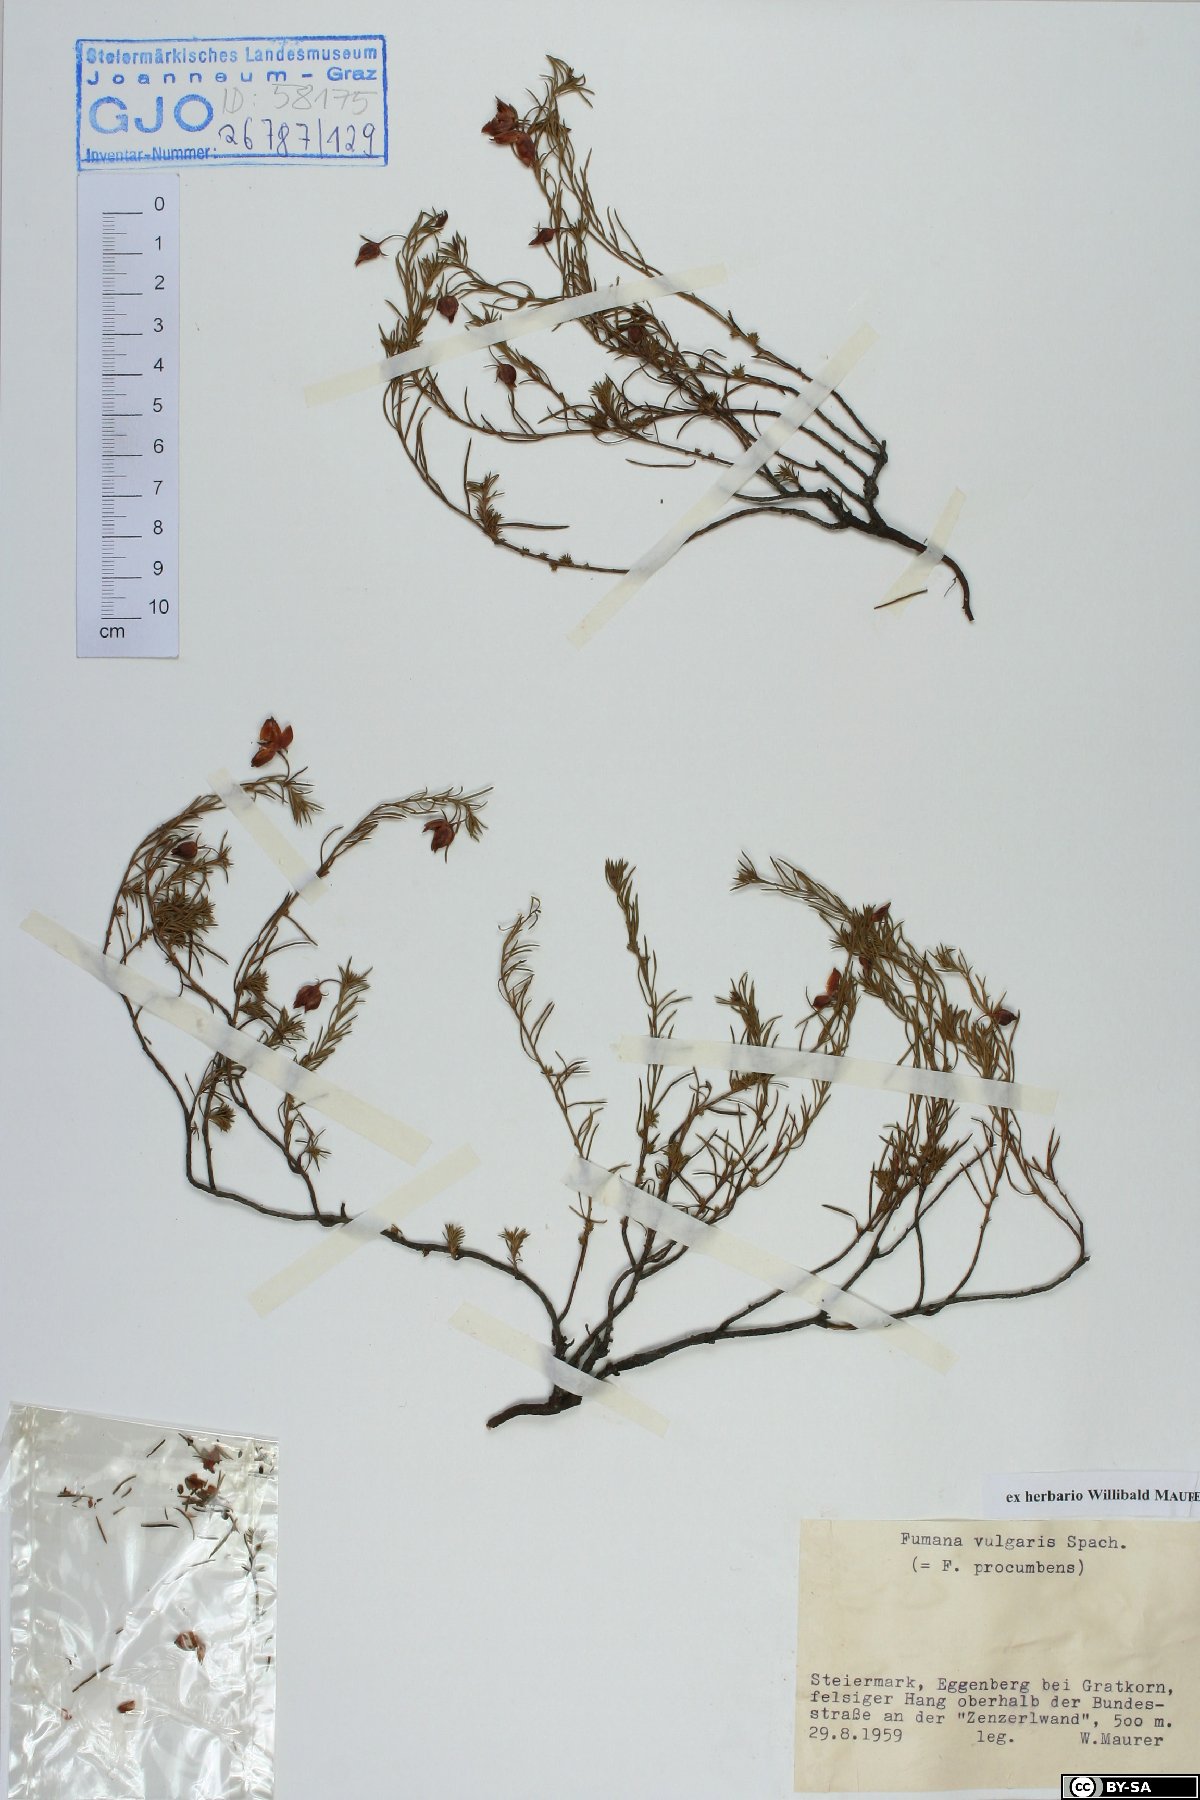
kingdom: Plantae
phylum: Tracheophyta
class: Magnoliopsida
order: Malvales
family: Cistaceae
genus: Fumana
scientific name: Fumana procumbens
